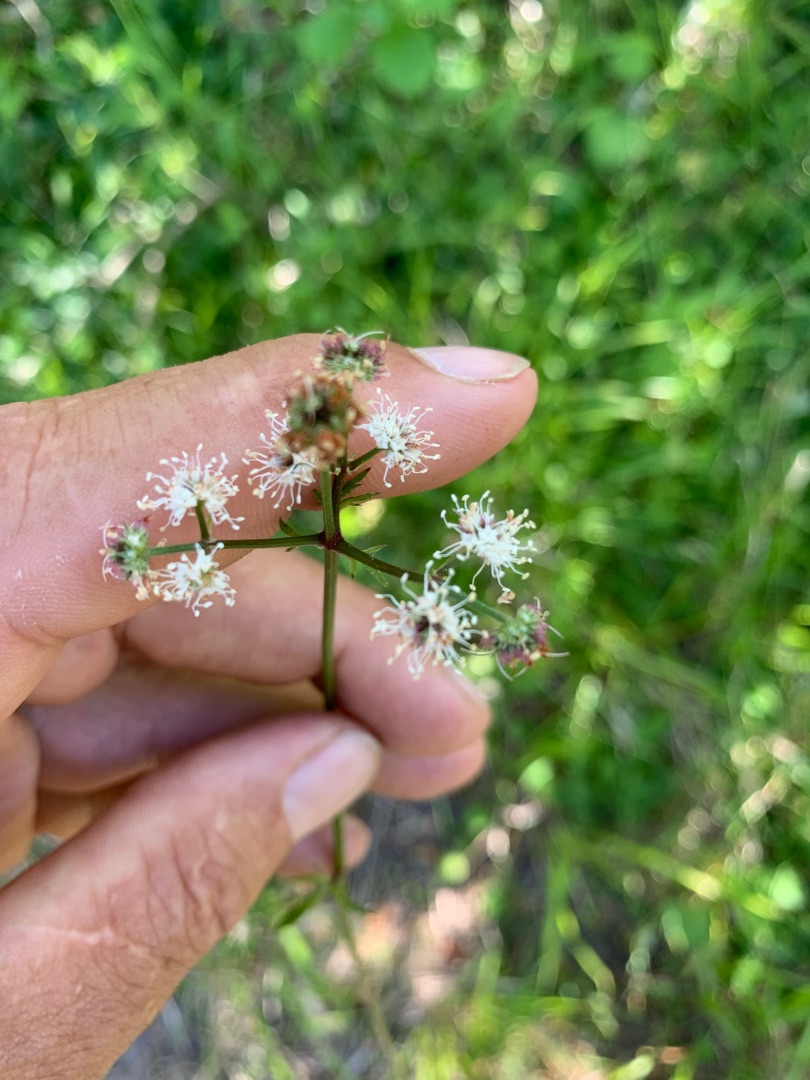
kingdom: Plantae
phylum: Tracheophyta
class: Magnoliopsida
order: Apiales
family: Apiaceae
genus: Sanicula
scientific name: Sanicula europaea
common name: Sanikel
